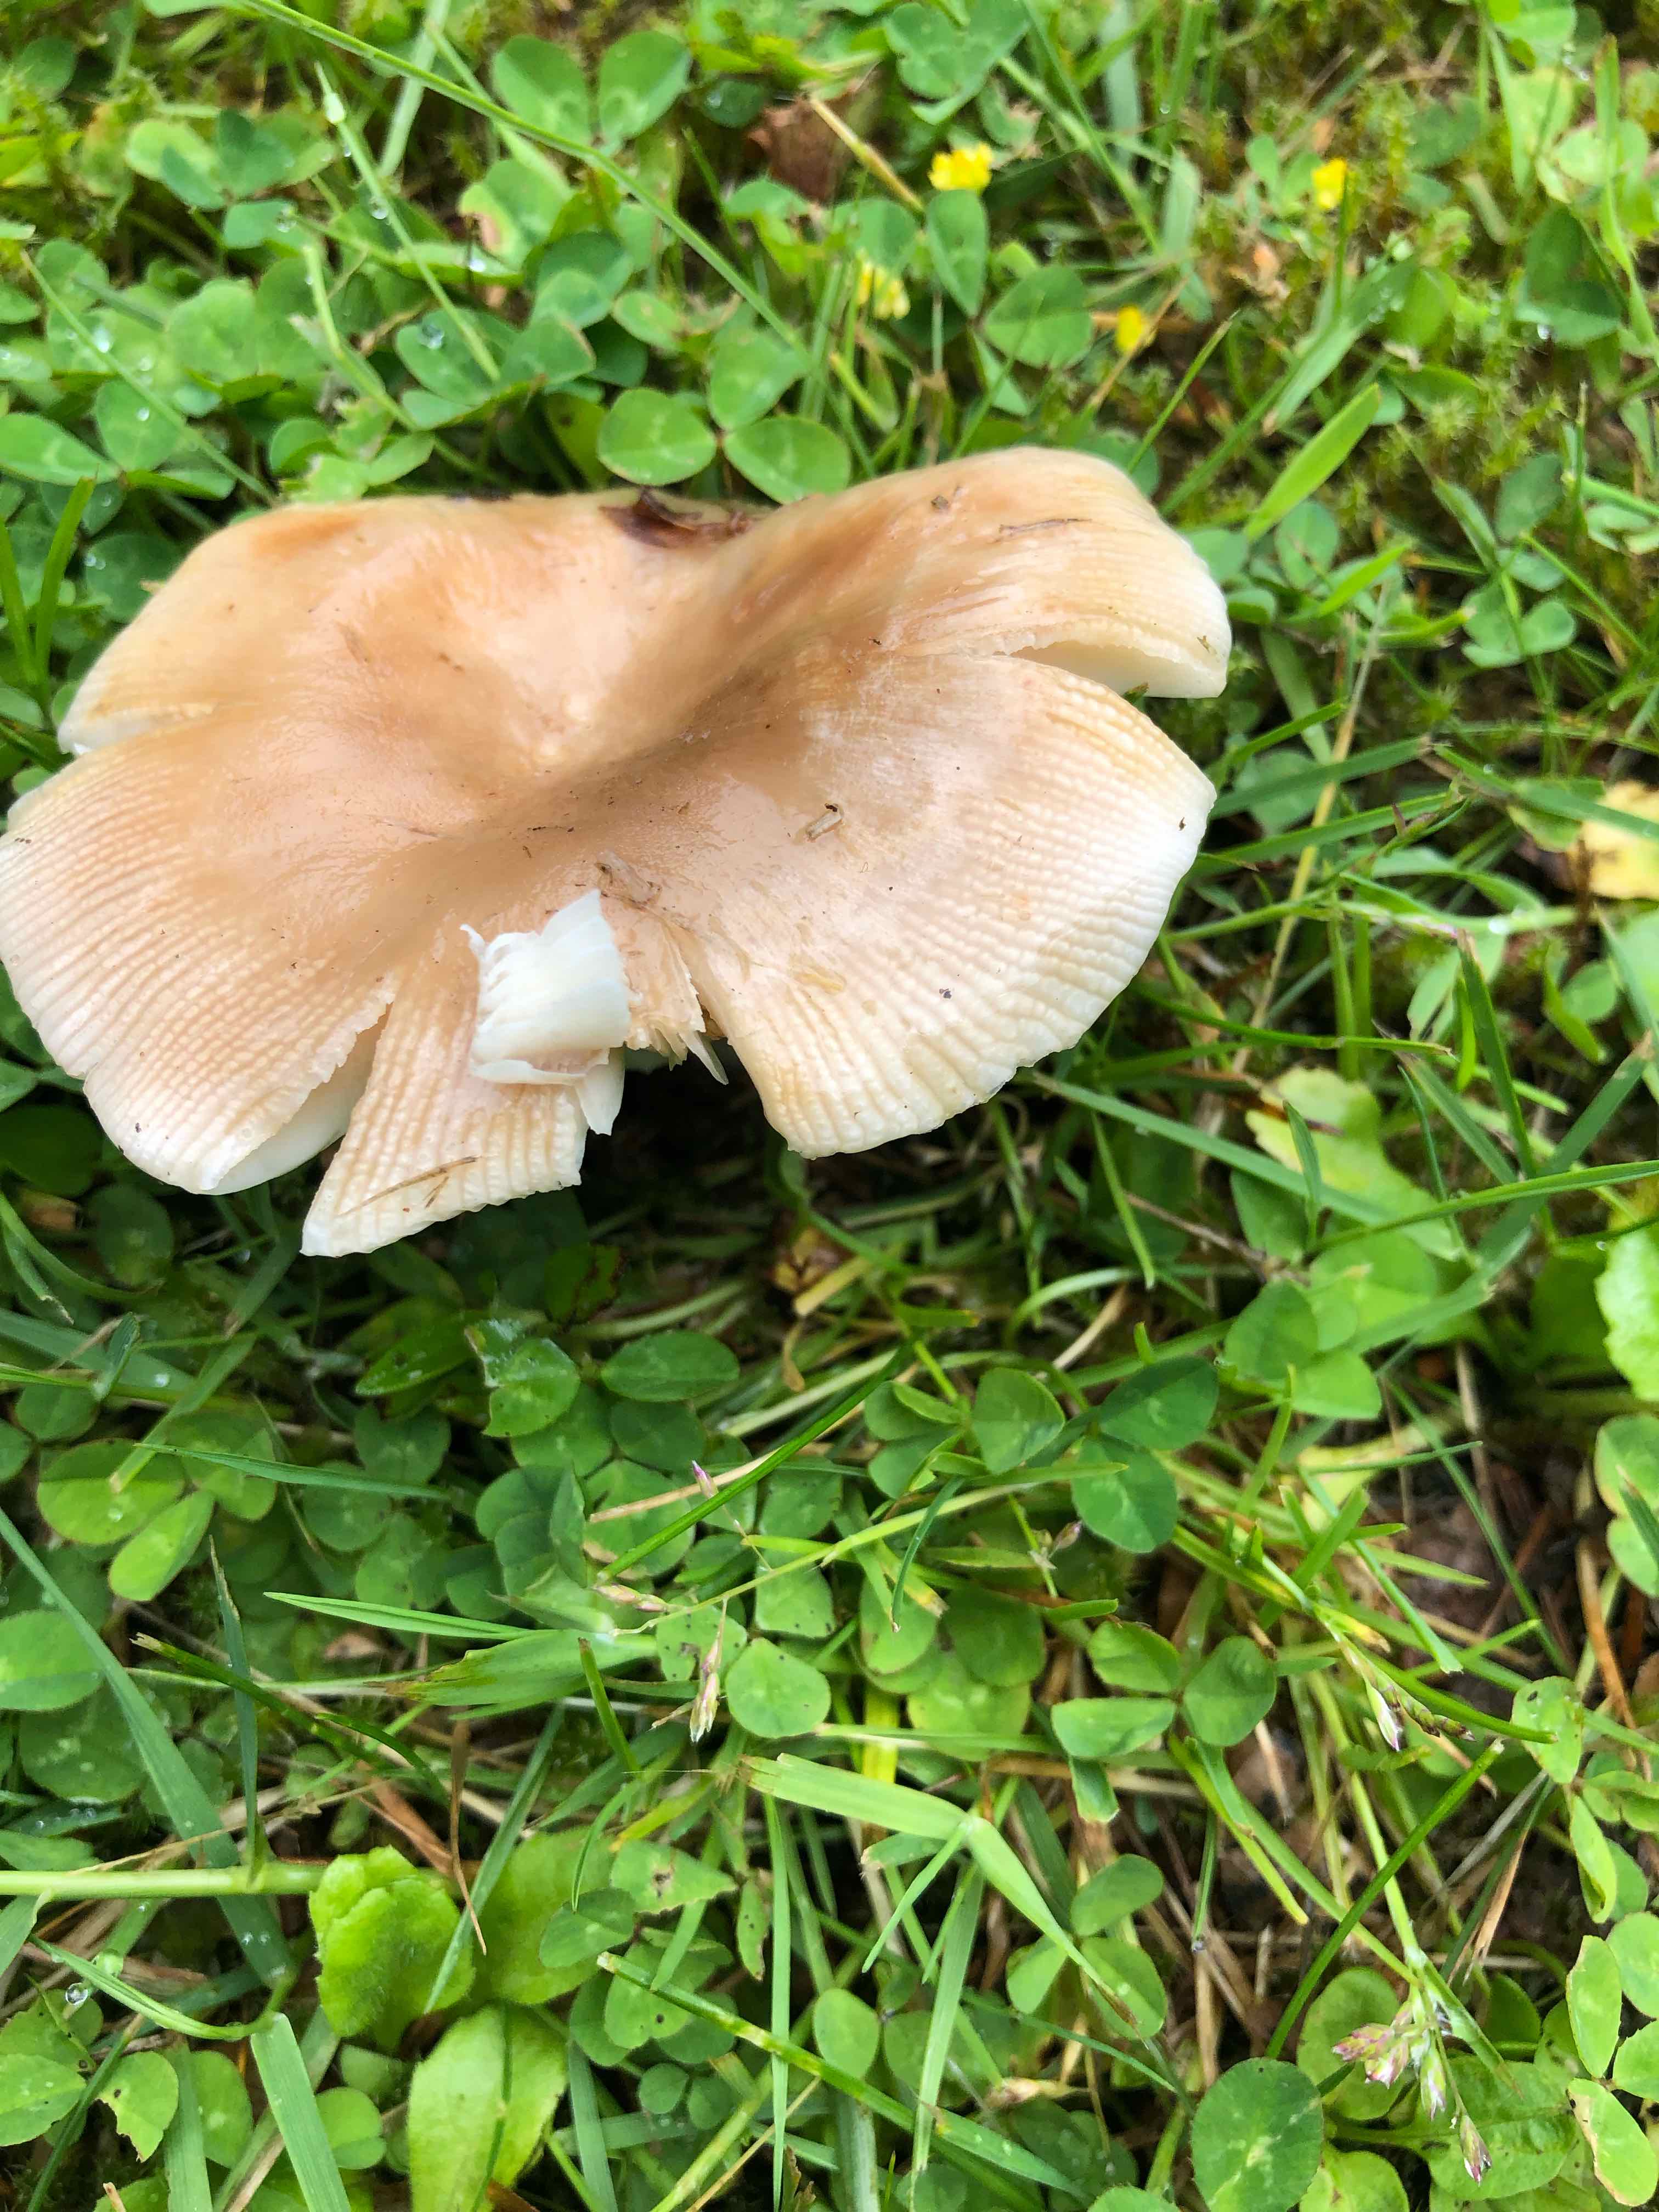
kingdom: Fungi
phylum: Basidiomycota
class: Agaricomycetes
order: Russulales
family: Russulaceae
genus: Russula
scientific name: Russula recondita
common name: mild kam-skørhat
